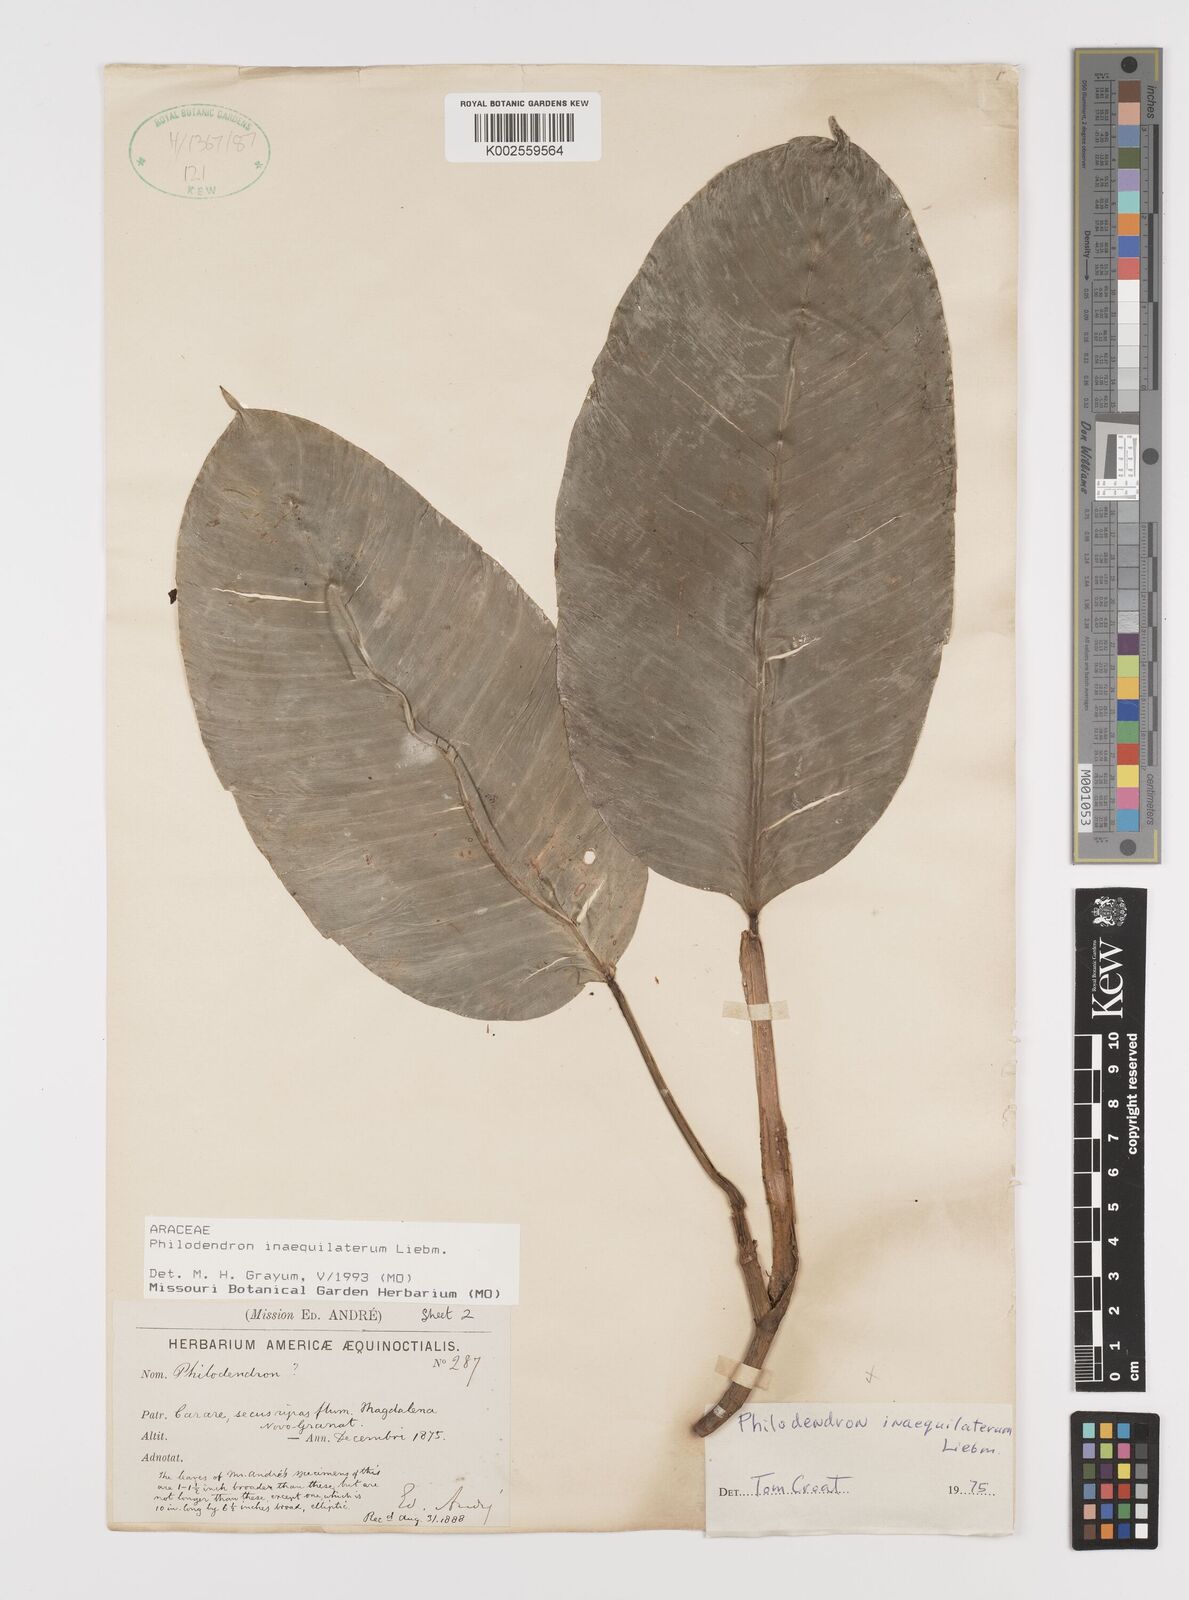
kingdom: Plantae
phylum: Tracheophyta
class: Liliopsida
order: Alismatales
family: Araceae
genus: Philodendron
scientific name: Philodendron inaequilaterum
